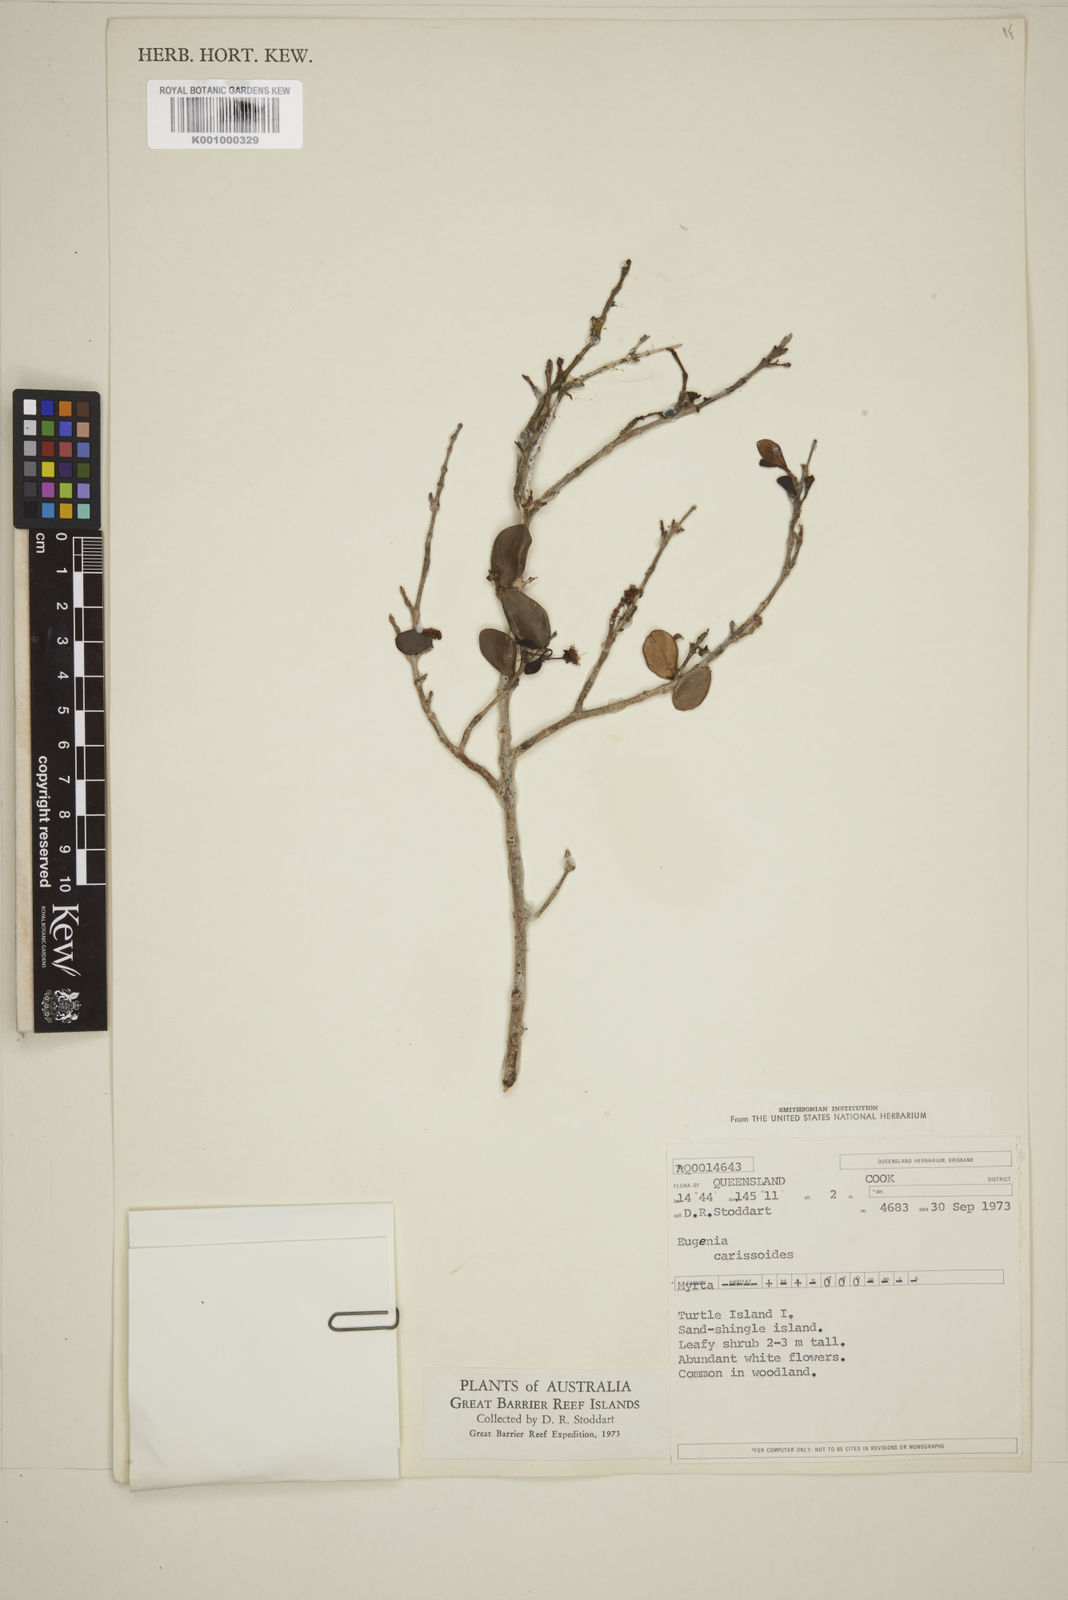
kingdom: Plantae
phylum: Tracheophyta
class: Magnoliopsida
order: Myrtales
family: Myrtaceae
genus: Eugenia
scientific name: Eugenia reinwardtiana
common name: Cedar bay-cherry
